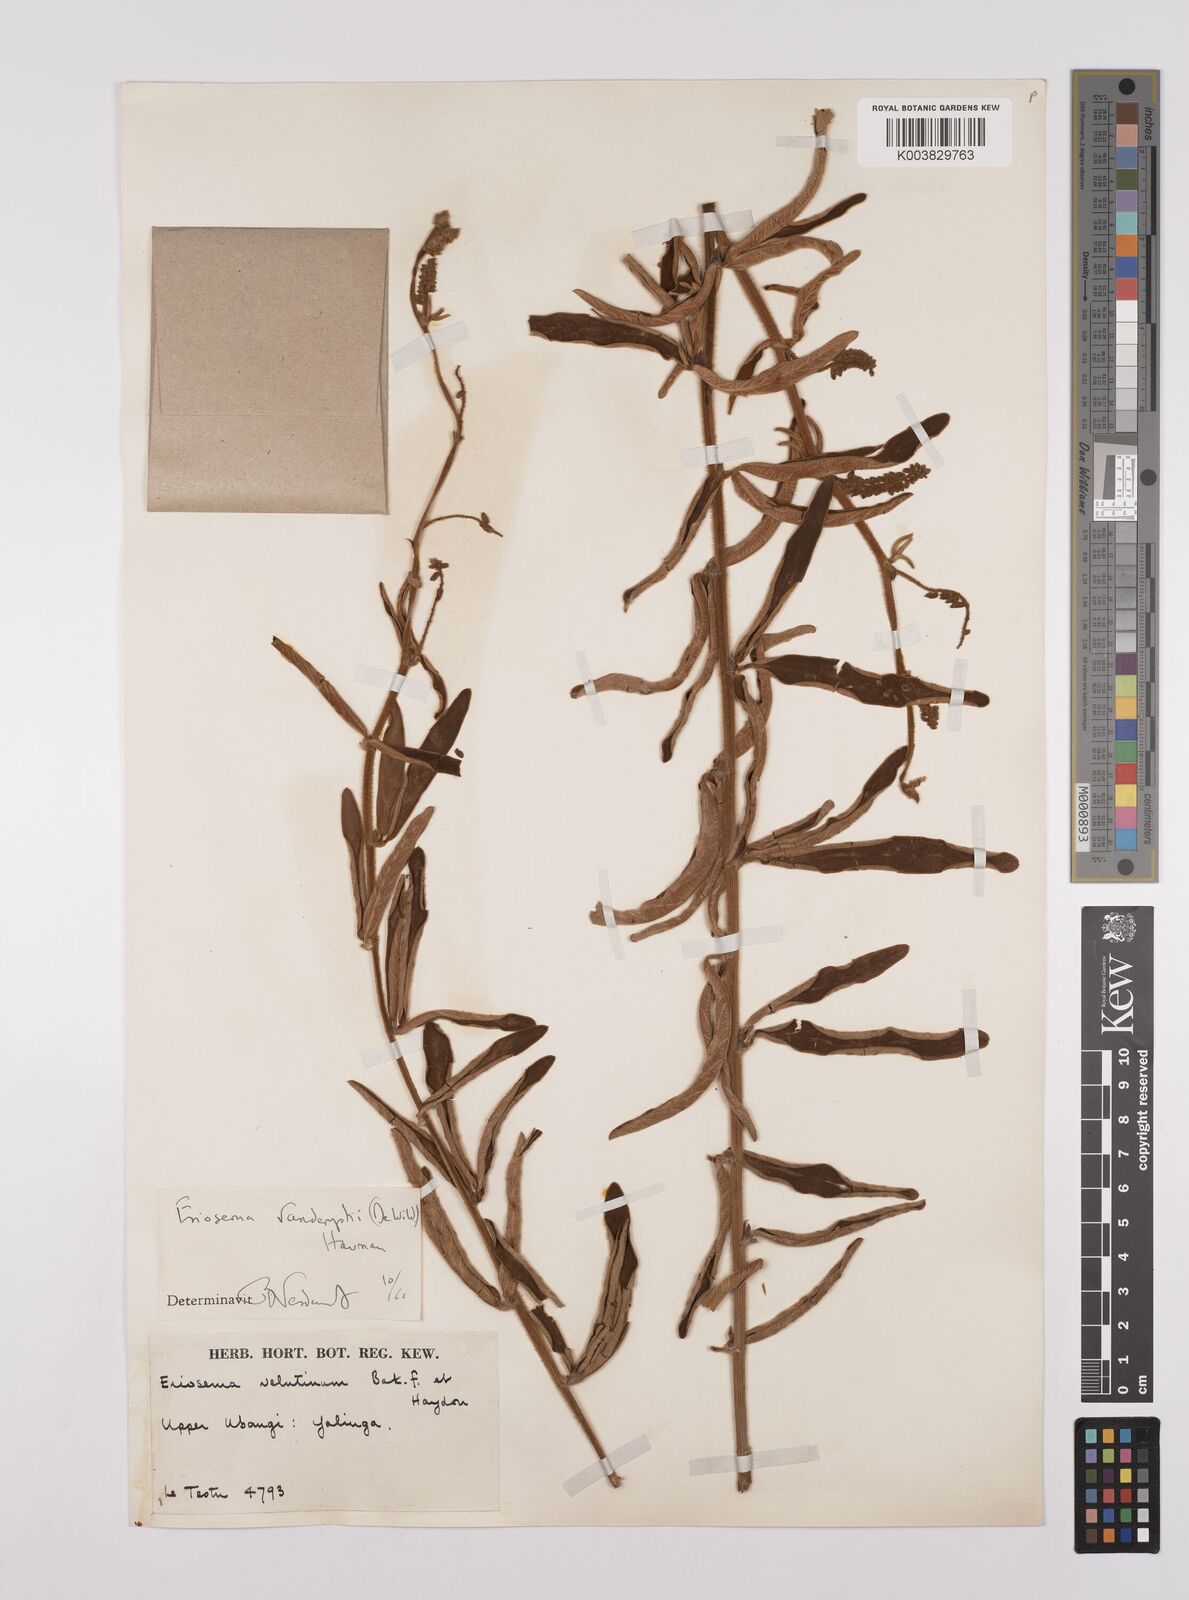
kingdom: Plantae
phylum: Tracheophyta
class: Magnoliopsida
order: Fabales
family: Fabaceae
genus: Eriosema
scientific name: Eriosema vanderystii
